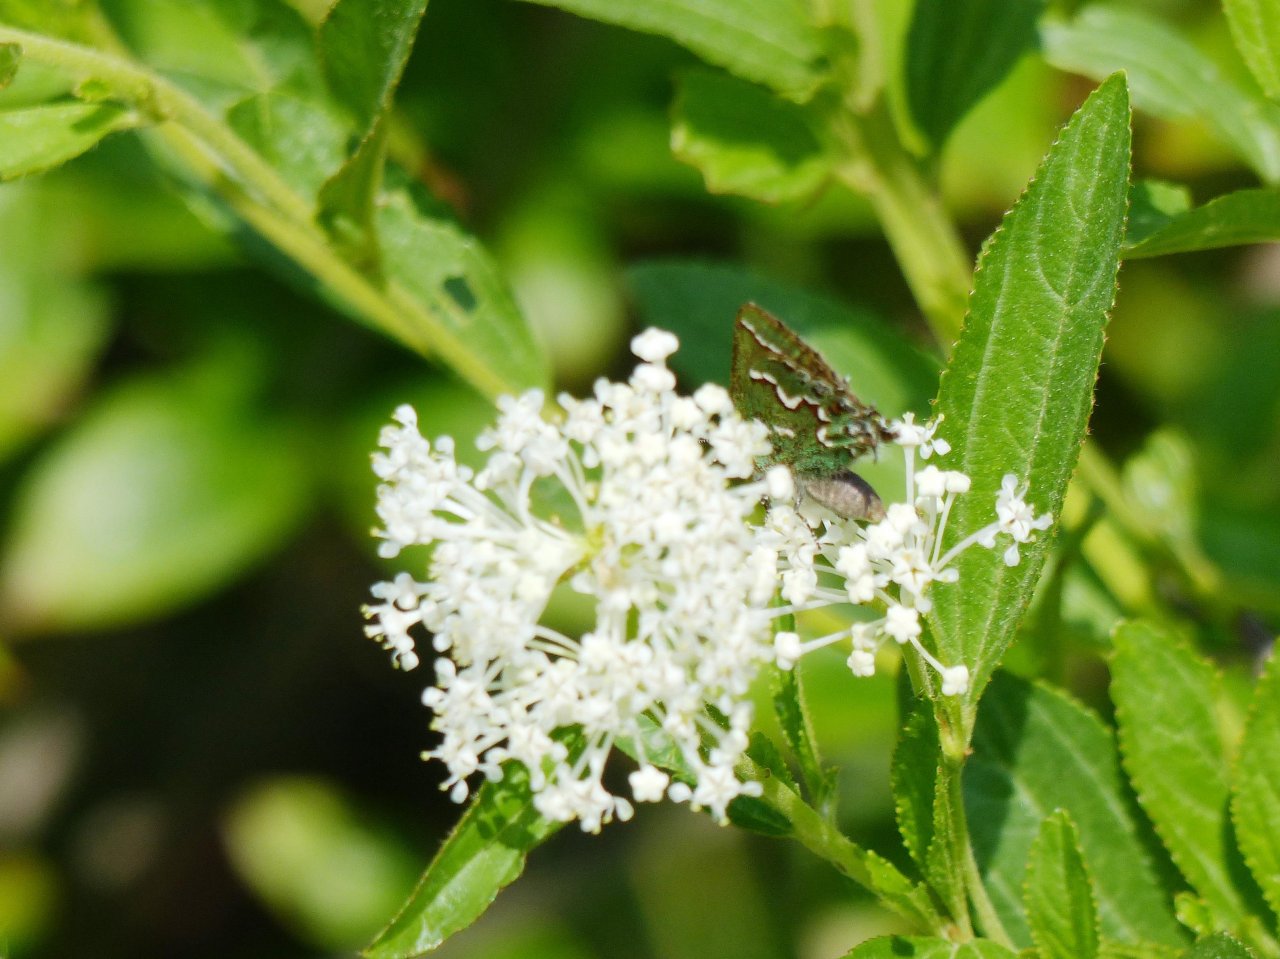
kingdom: Animalia
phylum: Arthropoda
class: Insecta
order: Lepidoptera
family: Lycaenidae
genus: Mitoura
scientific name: Mitoura gryneus
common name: Juniper Hairstreak
